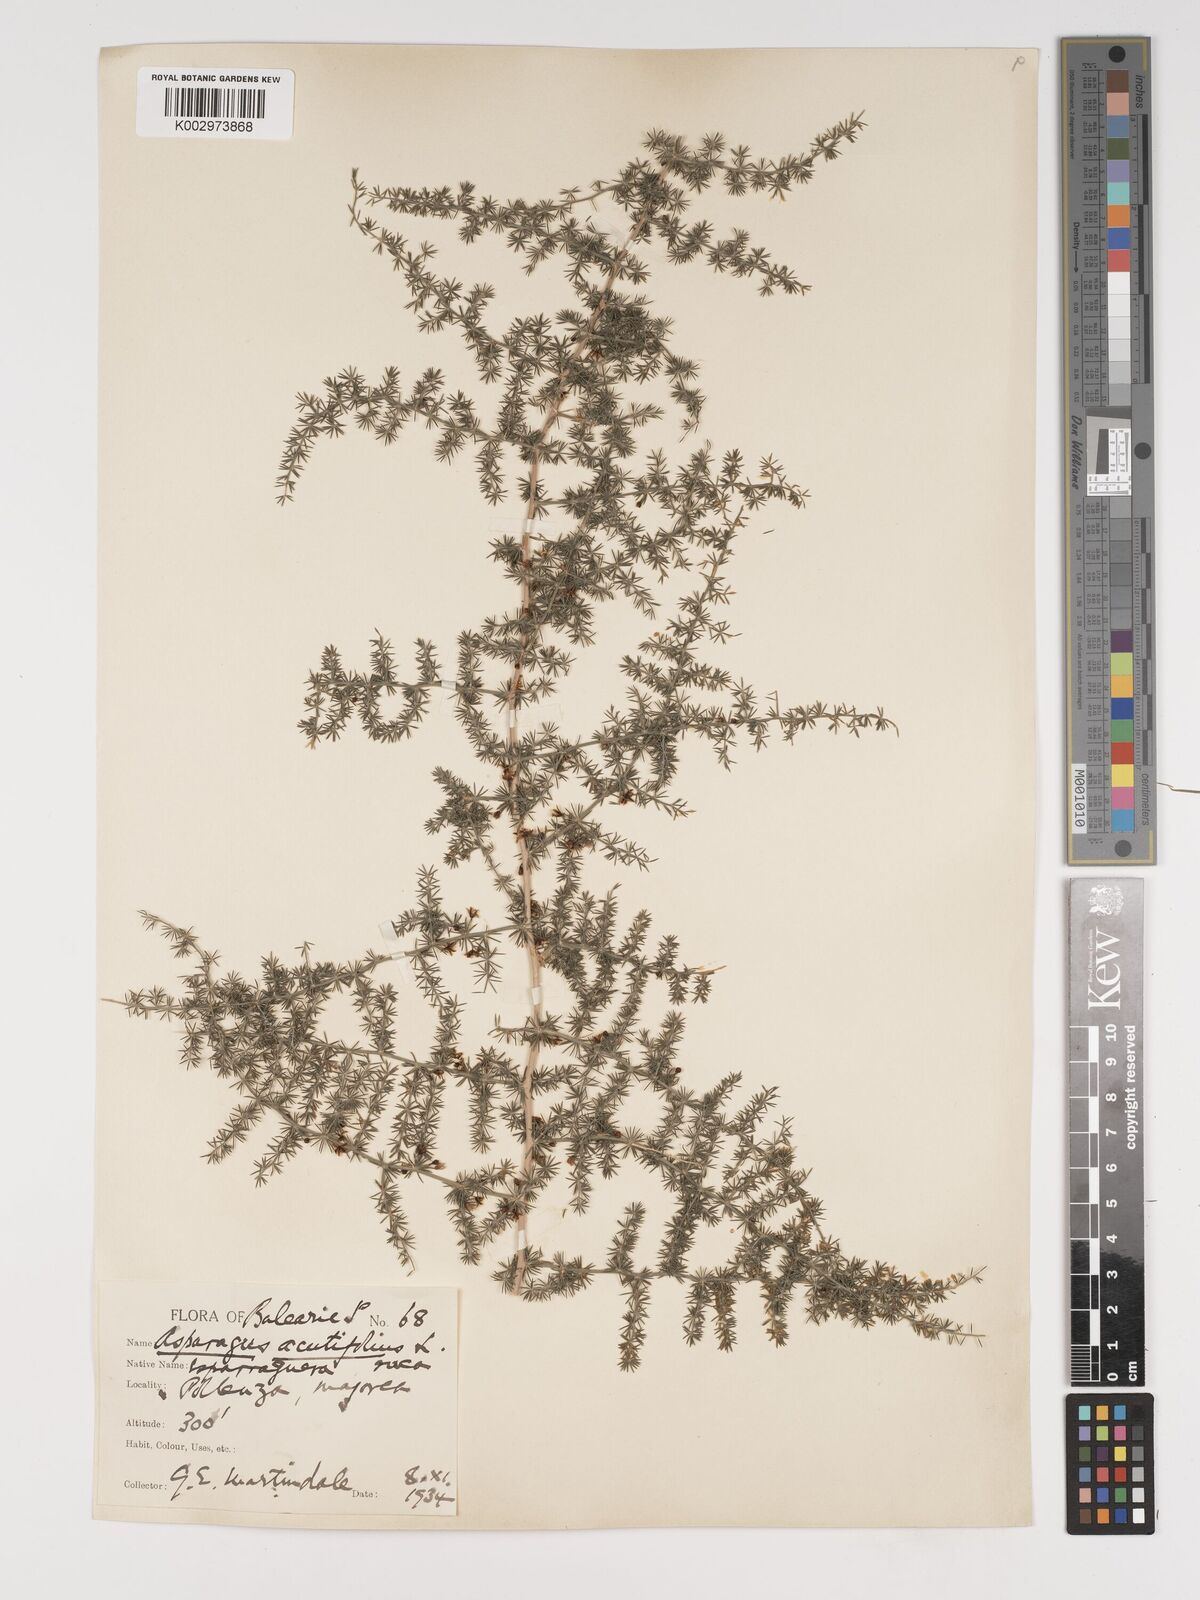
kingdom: Plantae
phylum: Tracheophyta
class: Liliopsida
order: Asparagales
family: Asparagaceae
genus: Asparagus
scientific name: Asparagus acutifolius
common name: Wild asparagus
